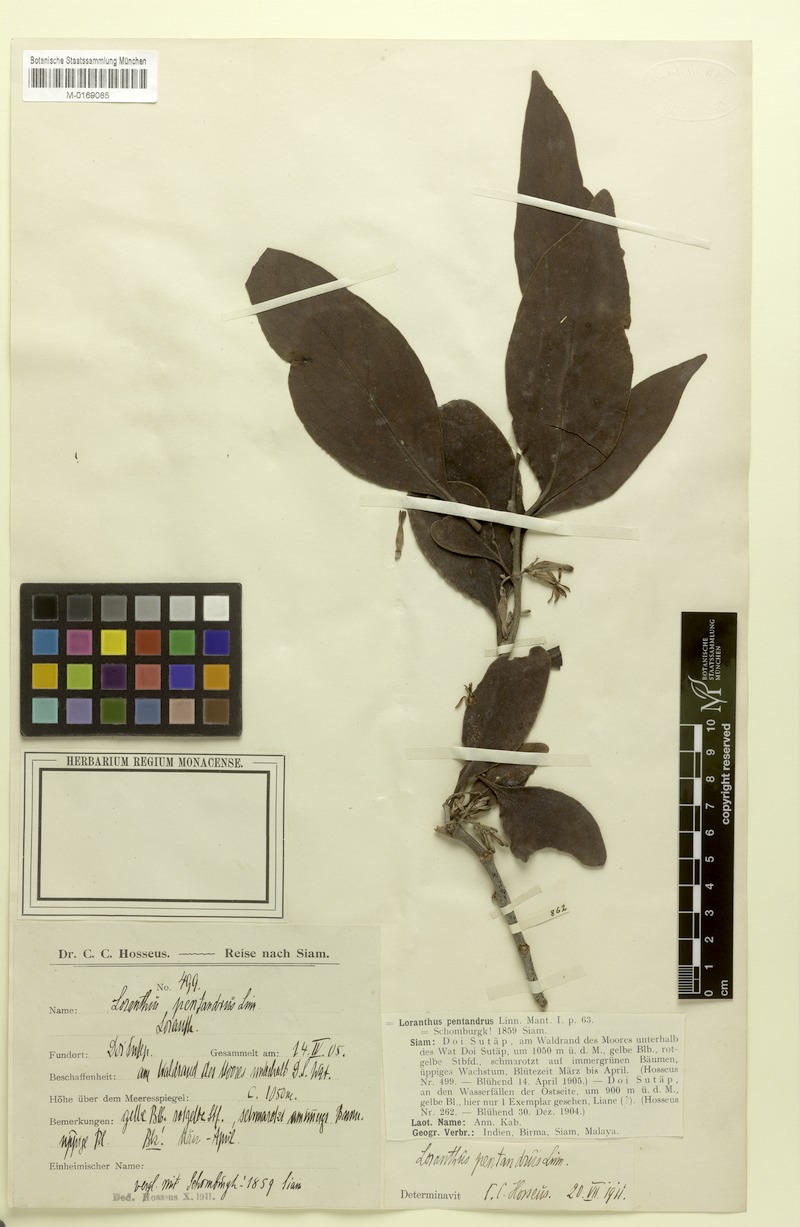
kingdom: Plantae
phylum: Tracheophyta
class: Magnoliopsida
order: Santalales
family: Loranthaceae
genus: Dendrophthoe
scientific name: Dendrophthoe pentandra
